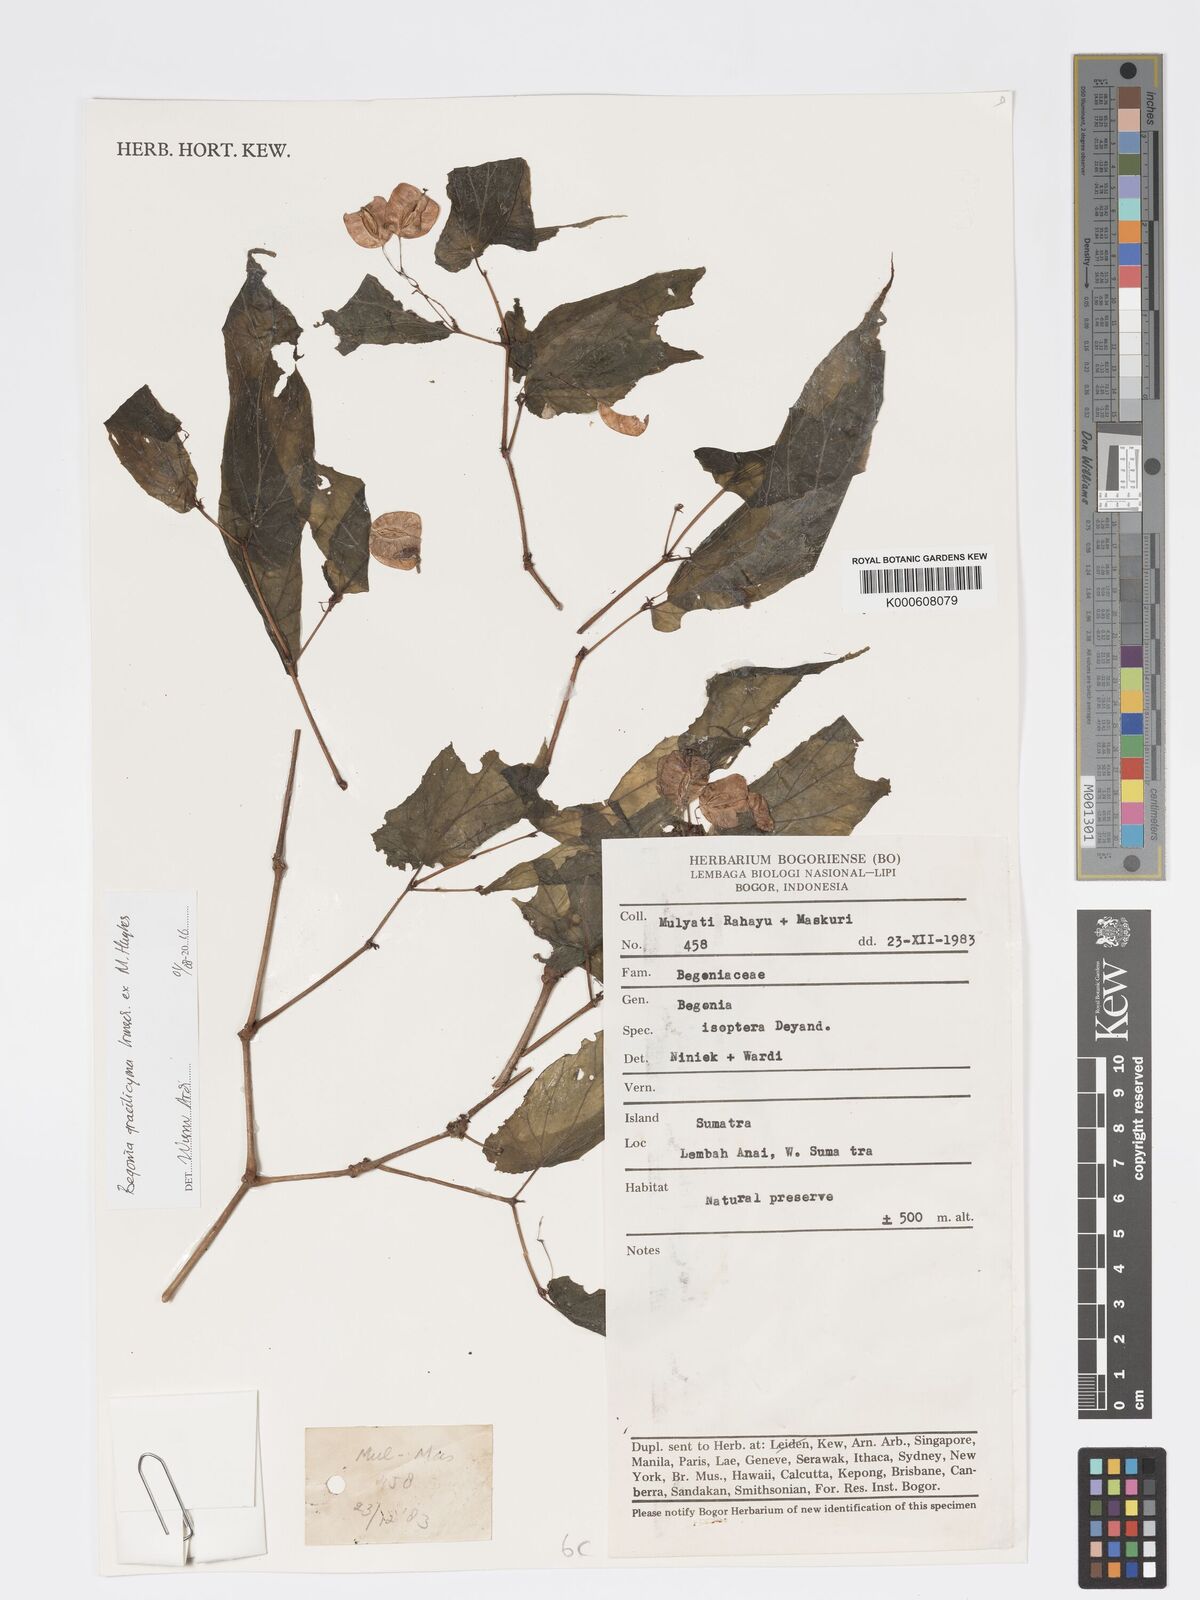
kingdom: Plantae
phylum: Tracheophyta
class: Magnoliopsida
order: Cucurbitales
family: Begoniaceae
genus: Begonia
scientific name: Begonia gracilicyma
